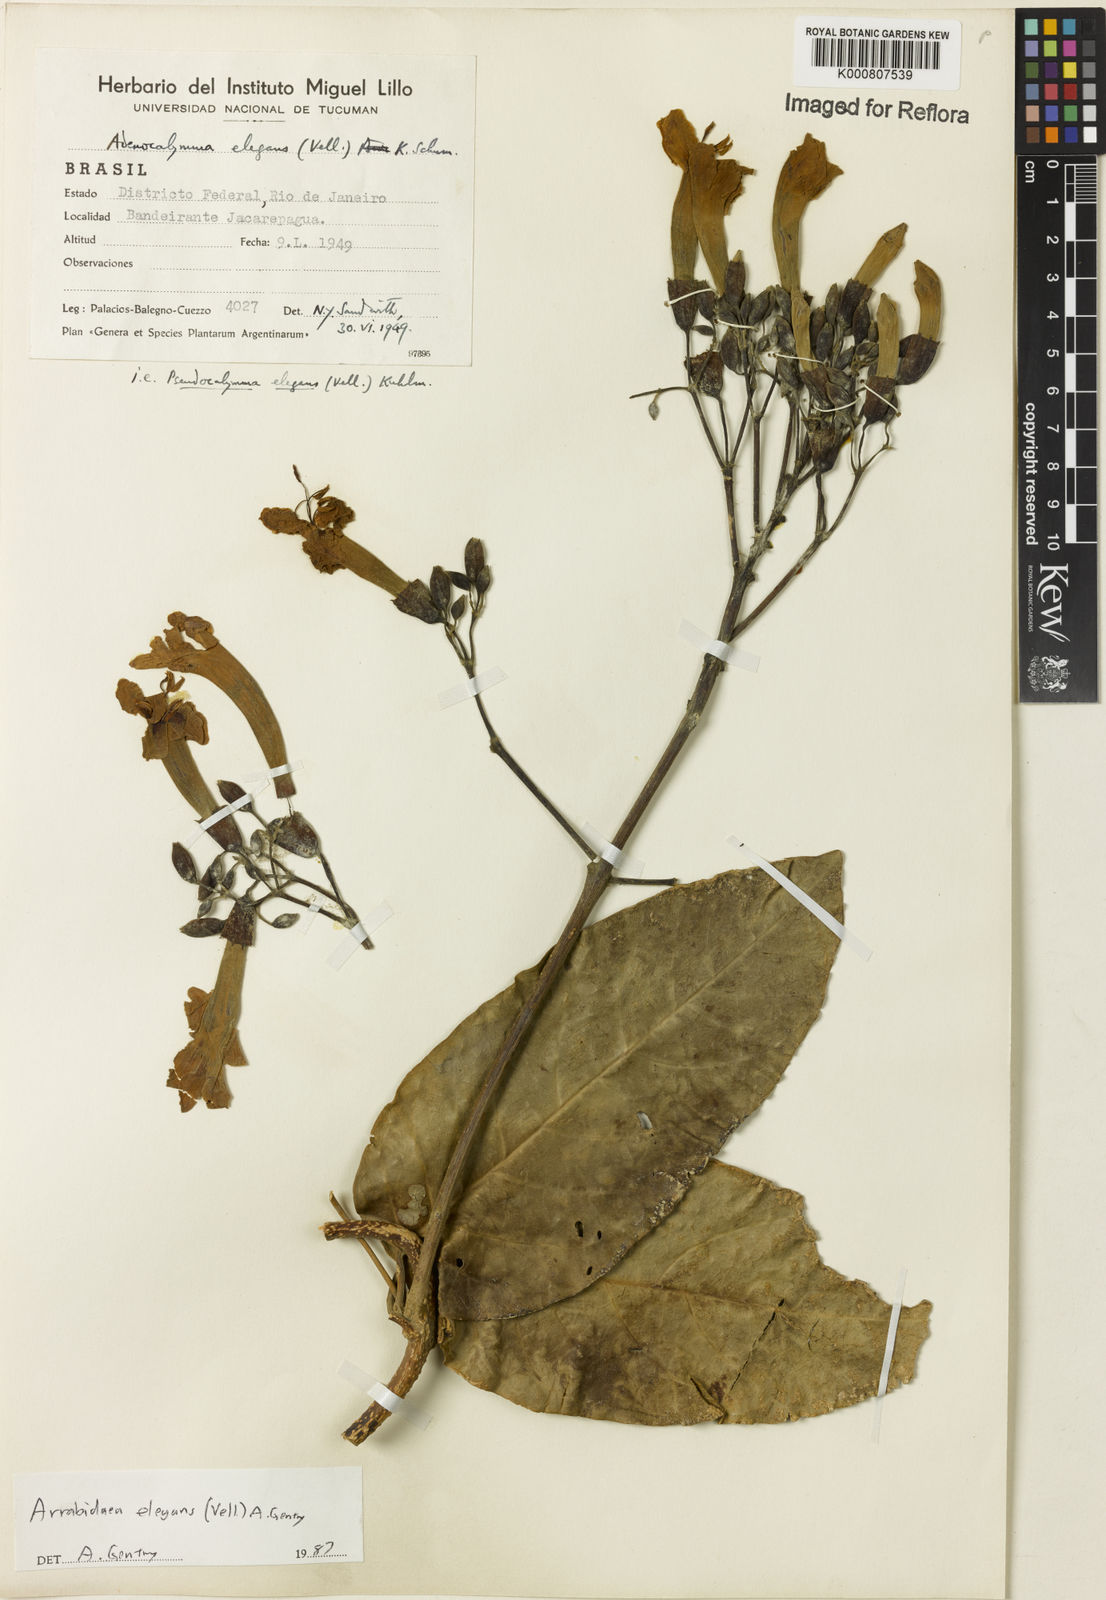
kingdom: Plantae
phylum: Tracheophyta
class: Magnoliopsida
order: Lamiales
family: Bignoniaceae
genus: Fridericia
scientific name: Fridericia elegans
